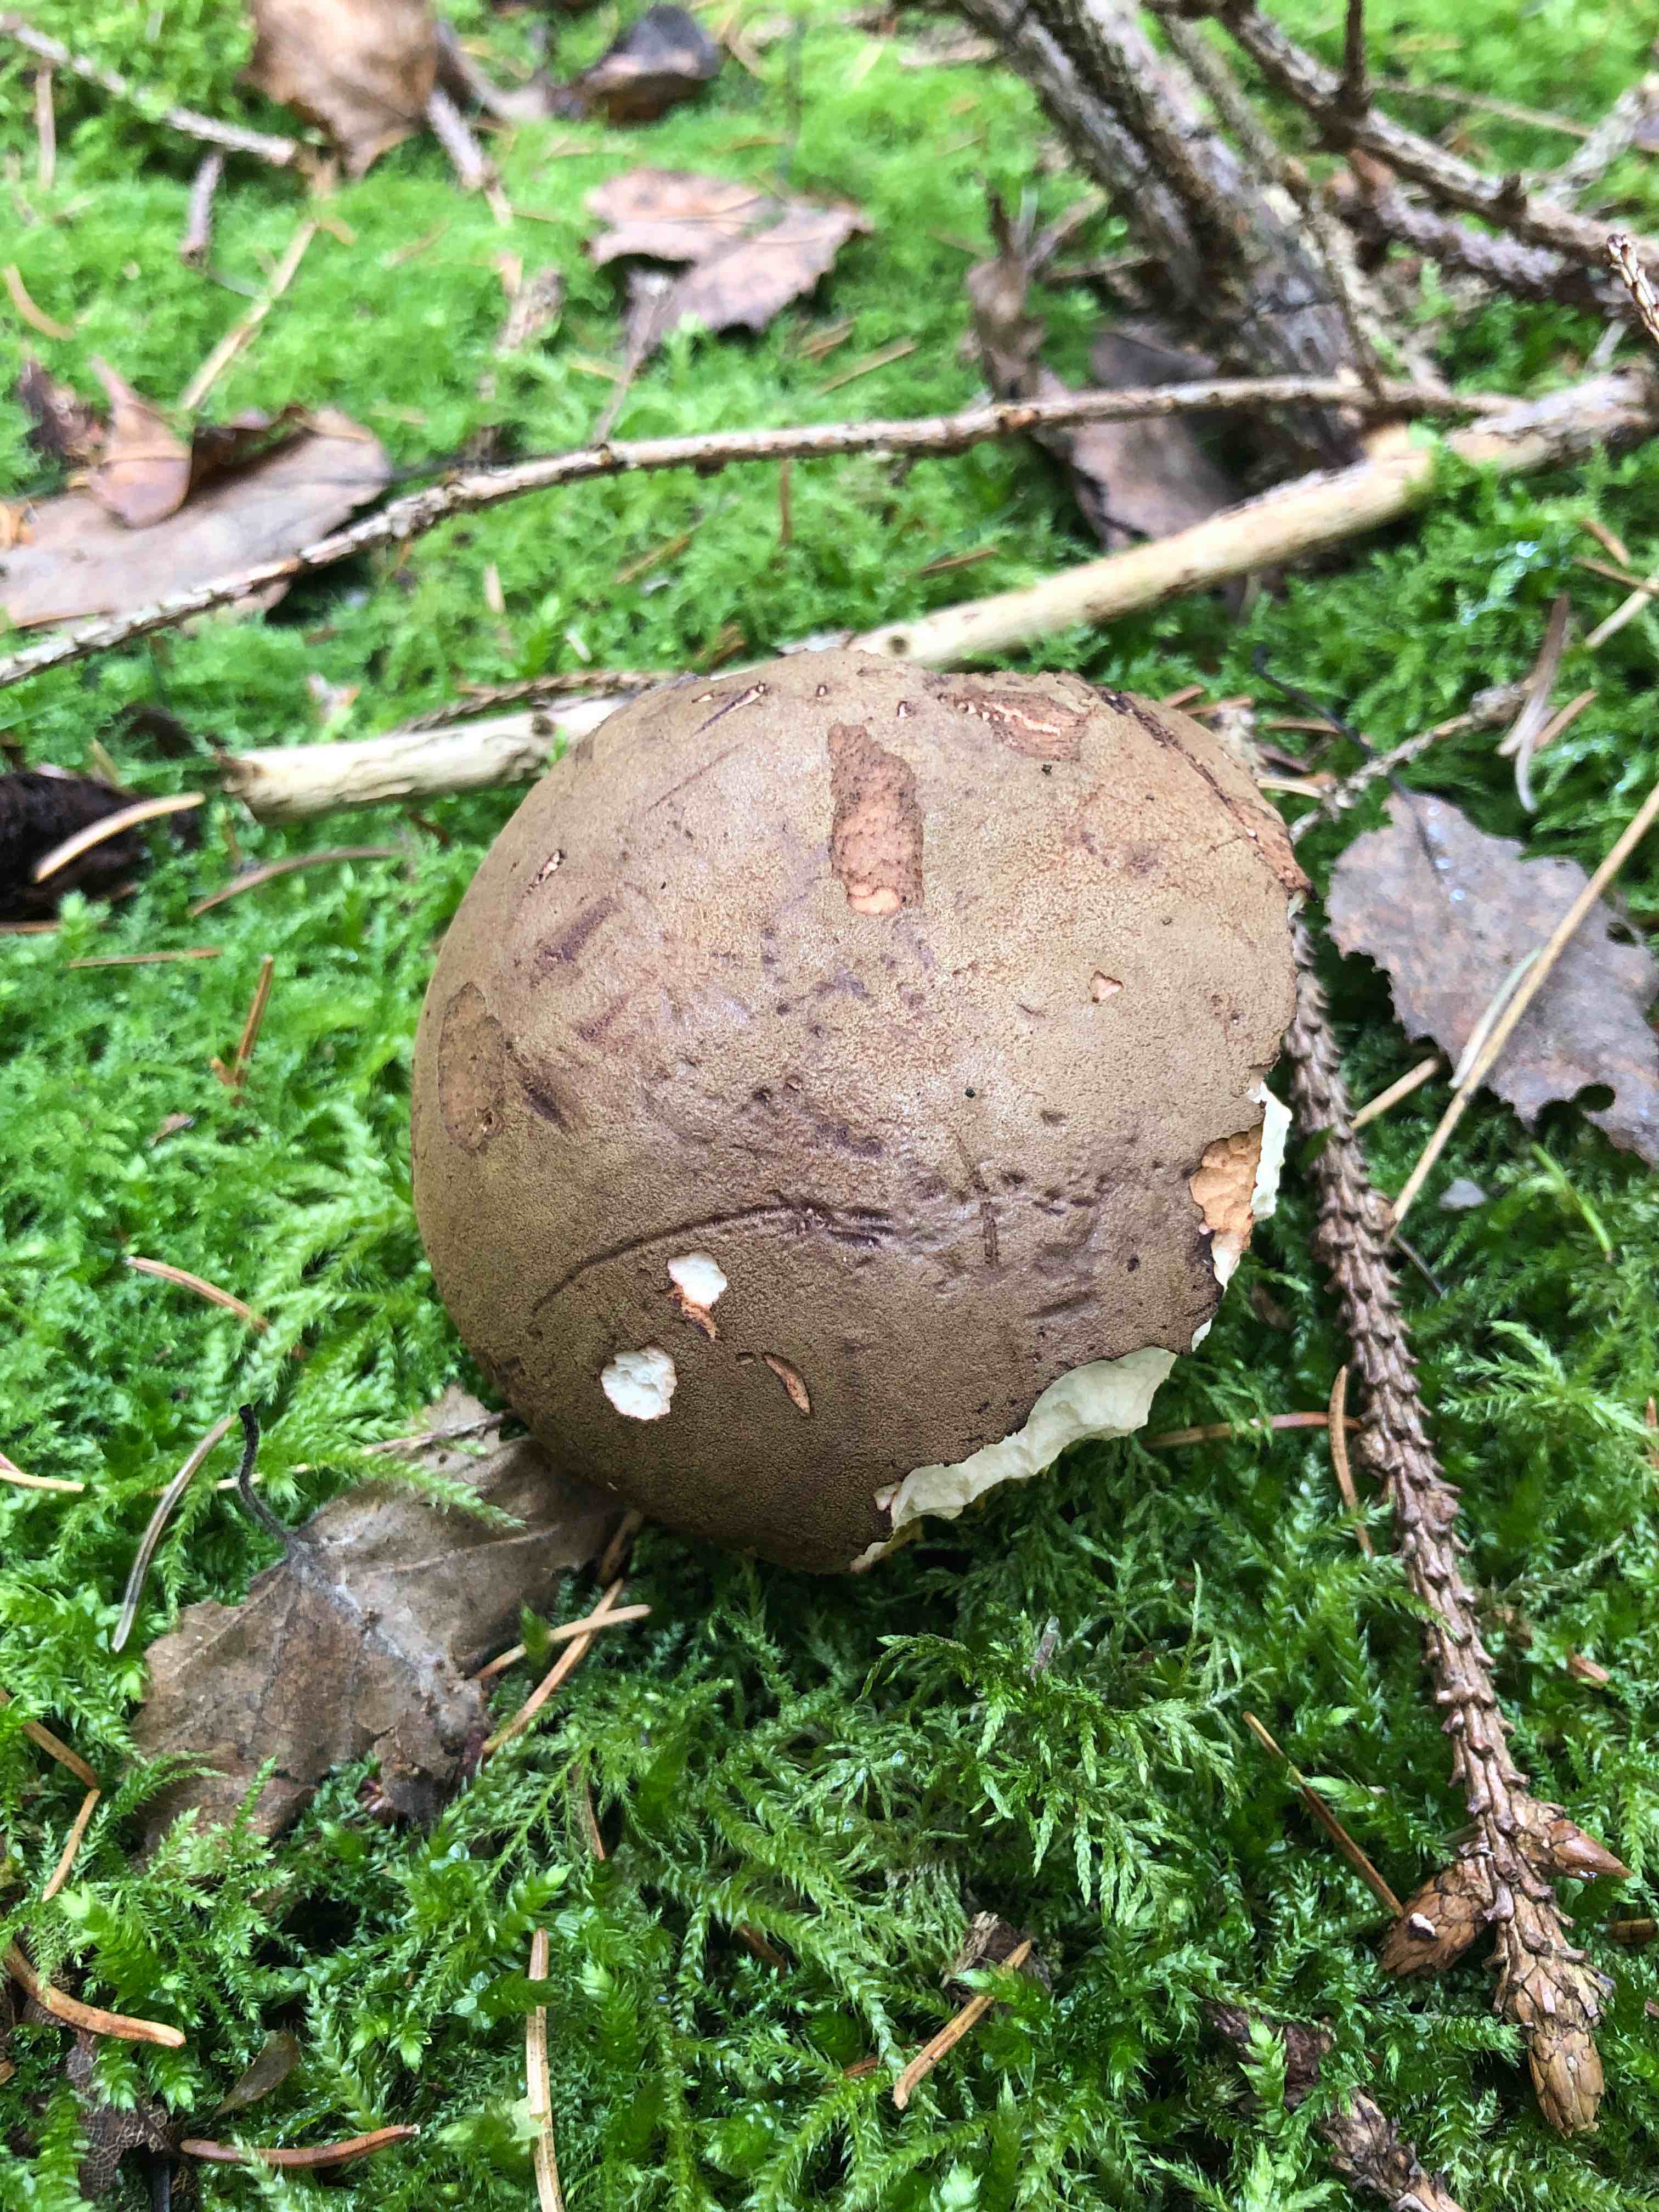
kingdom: Fungi
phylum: Basidiomycota
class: Agaricomycetes
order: Boletales
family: Boletaceae
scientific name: Boletaceae
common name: rørhatfamilien
